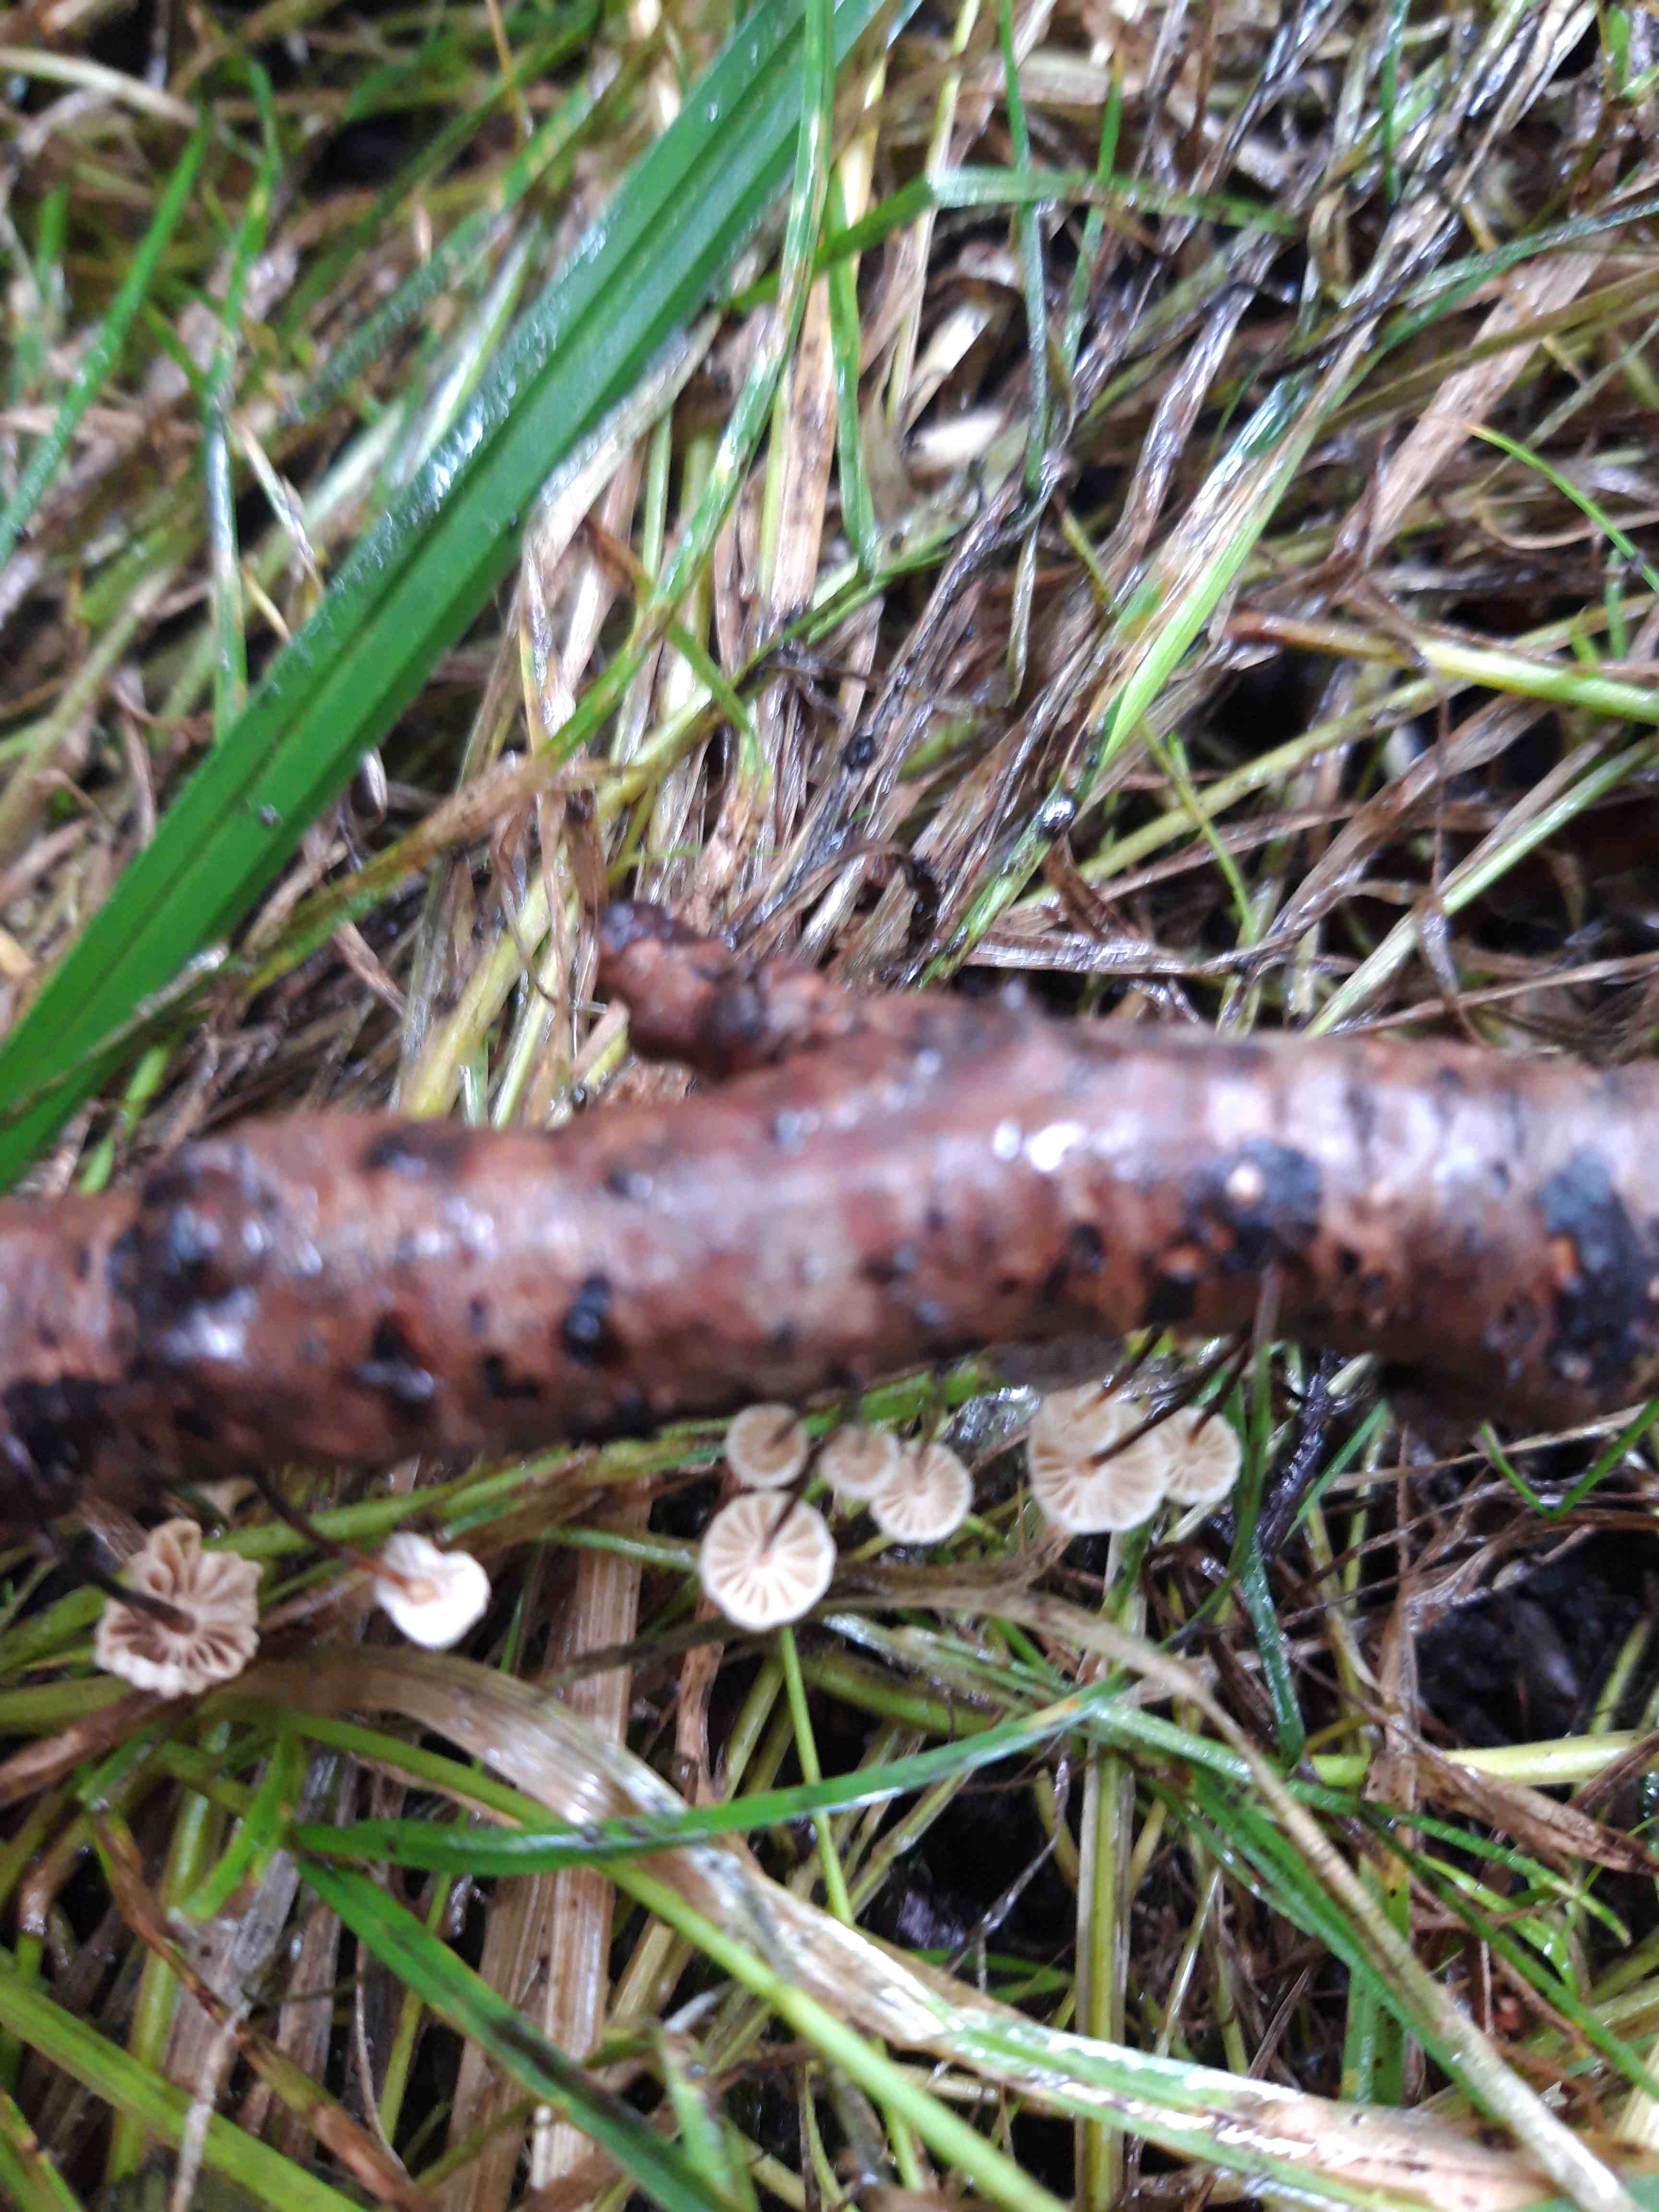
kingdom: Fungi
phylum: Basidiomycota
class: Agaricomycetes
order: Agaricales
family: Marasmiaceae
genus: Marasmius
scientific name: Marasmius rotula
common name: hjul-bruskhat
